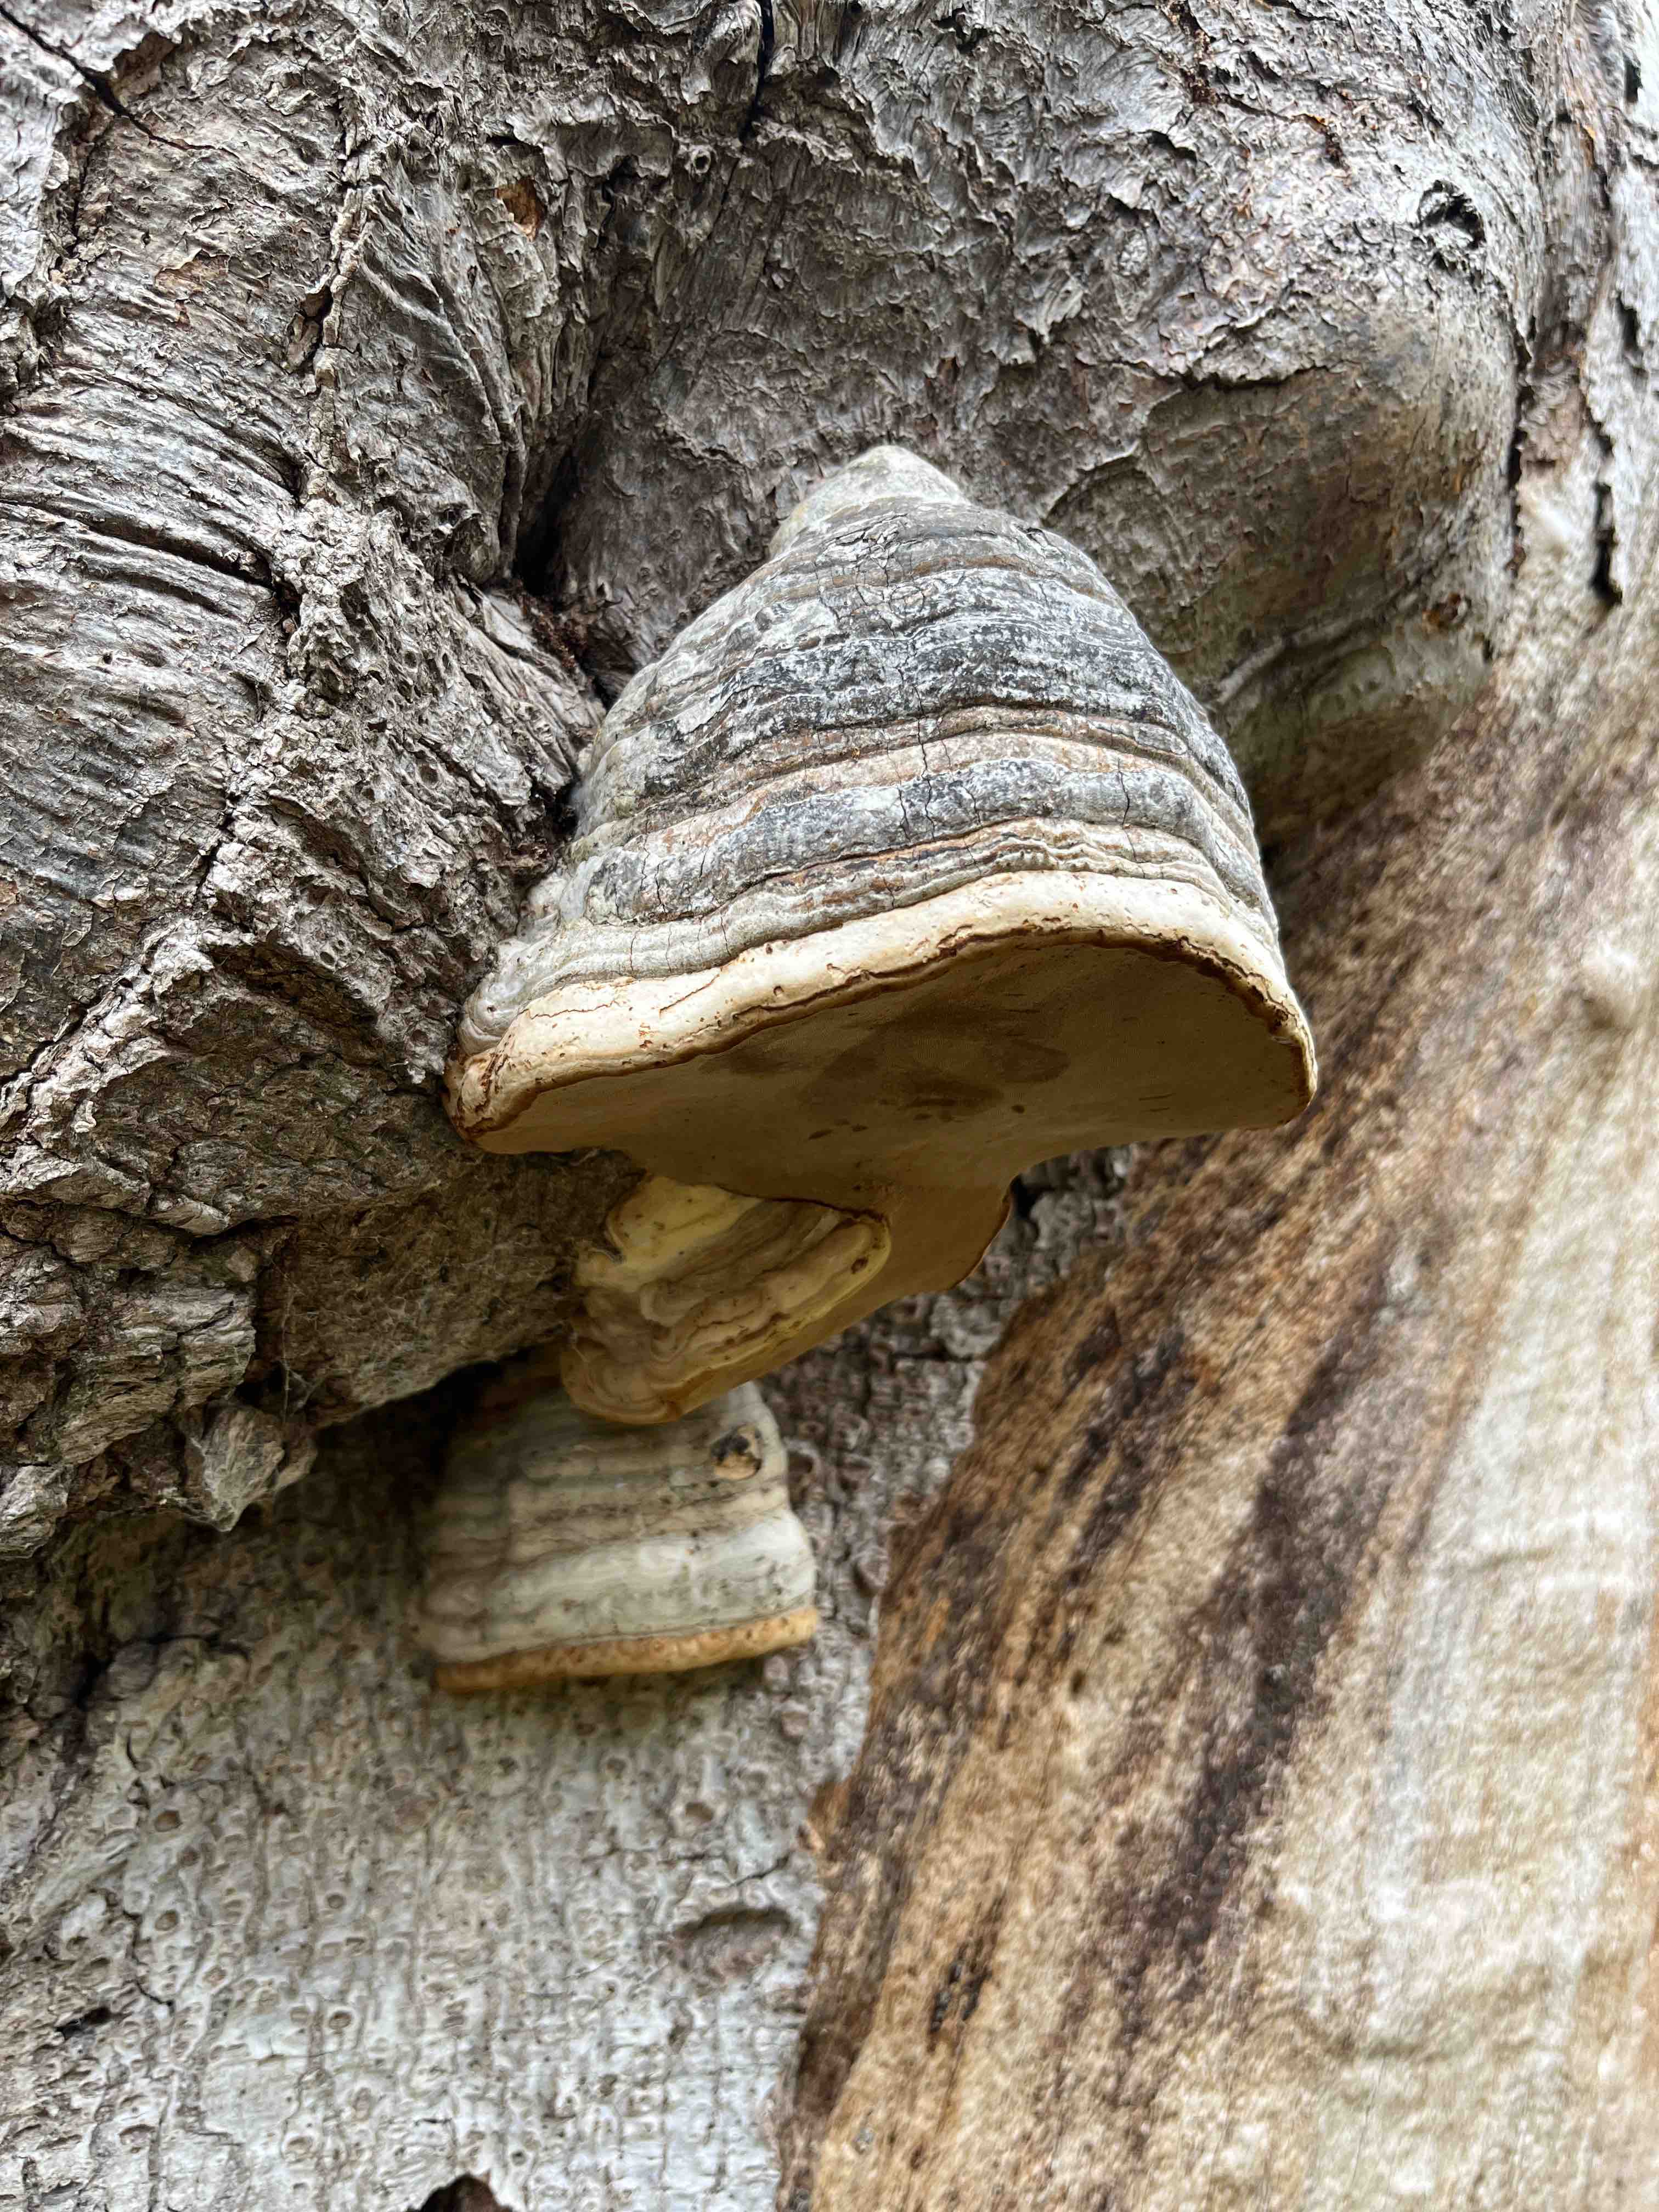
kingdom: Fungi
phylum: Basidiomycota
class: Agaricomycetes
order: Polyporales
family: Polyporaceae
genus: Fomes
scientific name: Fomes fomentarius
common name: tøndersvamp
